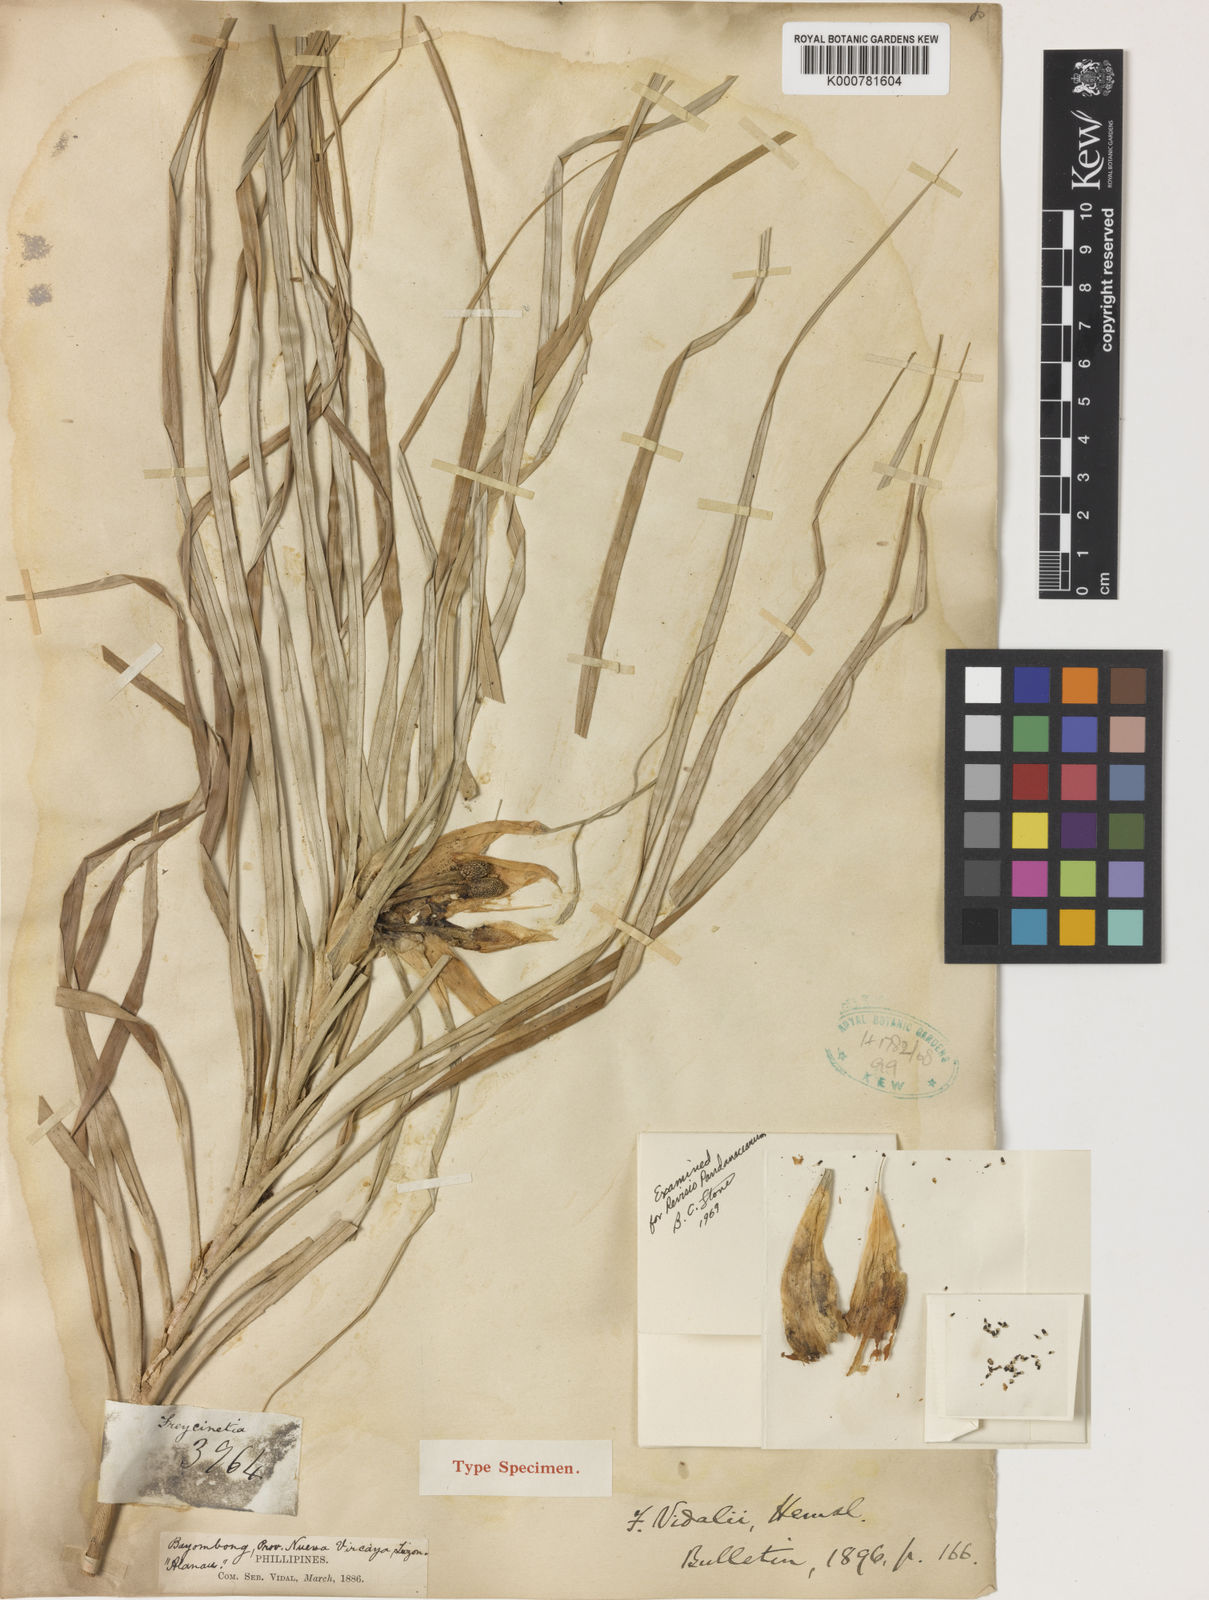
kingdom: Plantae
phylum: Tracheophyta
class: Liliopsida
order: Pandanales
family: Pandanaceae
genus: Freycinetia
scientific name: Freycinetia vidalii
